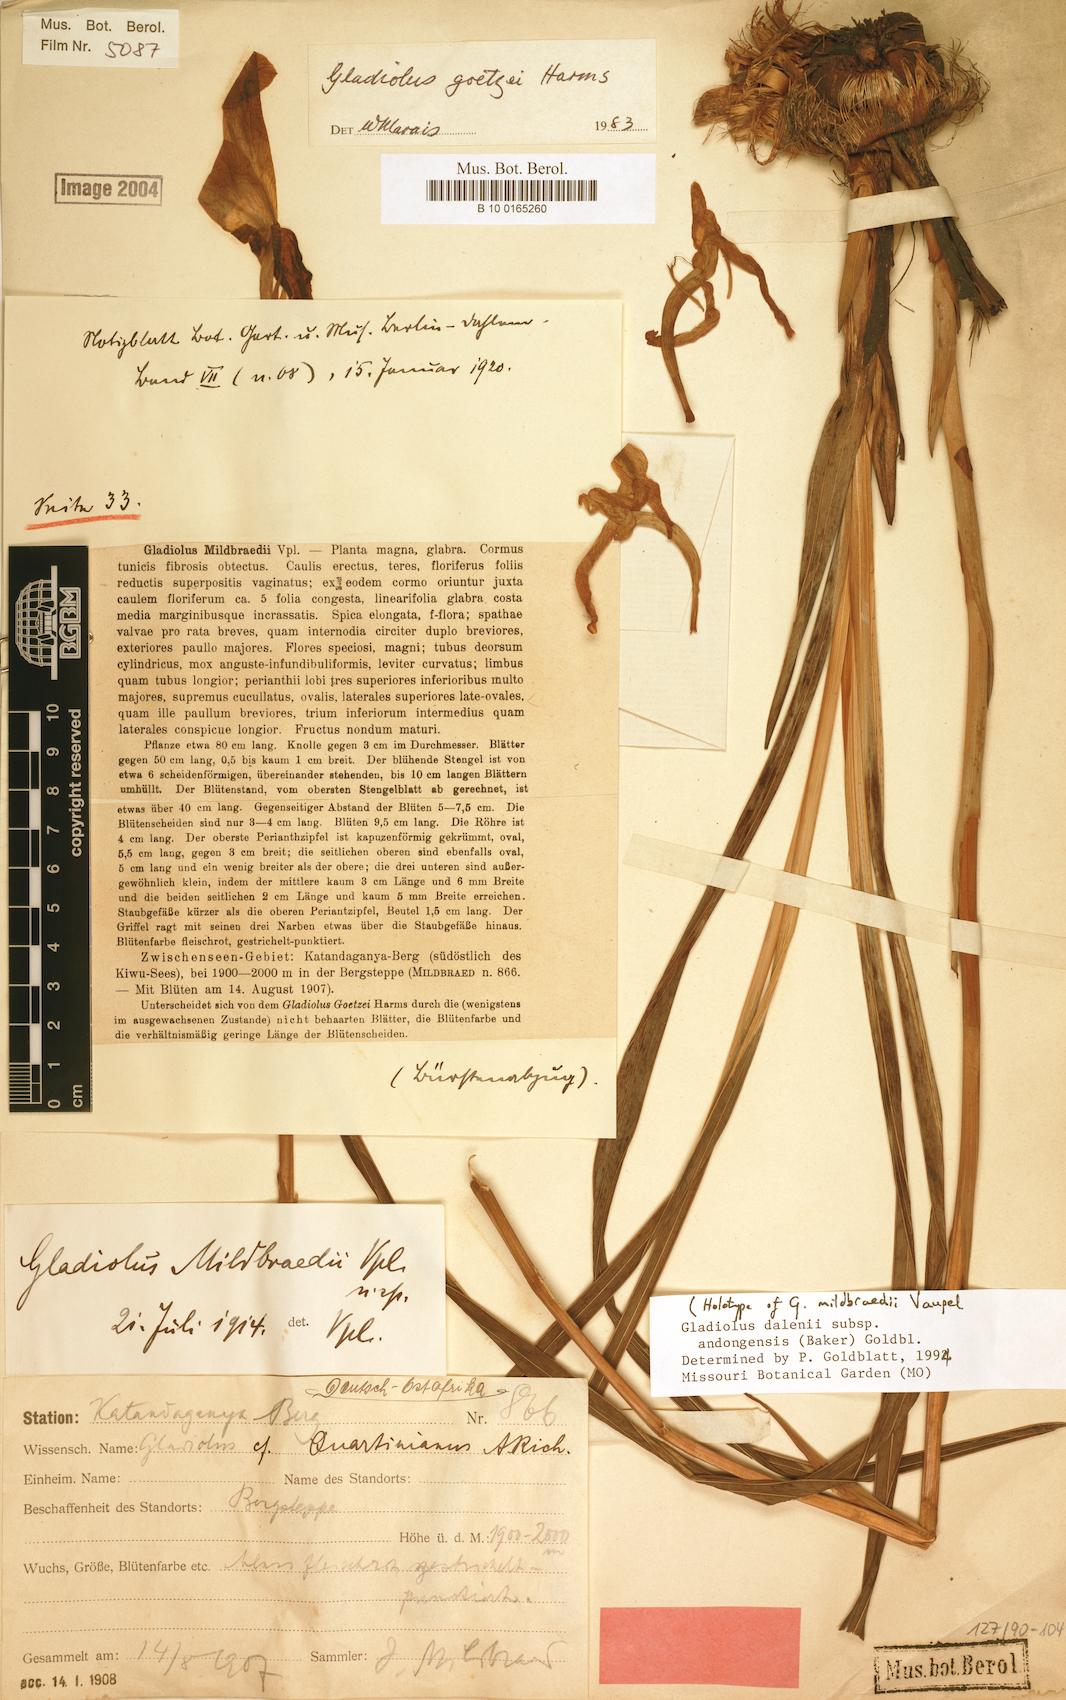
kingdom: Plantae
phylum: Tracheophyta
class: Liliopsida
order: Asparagales
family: Iridaceae
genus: Gladiolus
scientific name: Gladiolus dalenii
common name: Cornflag
